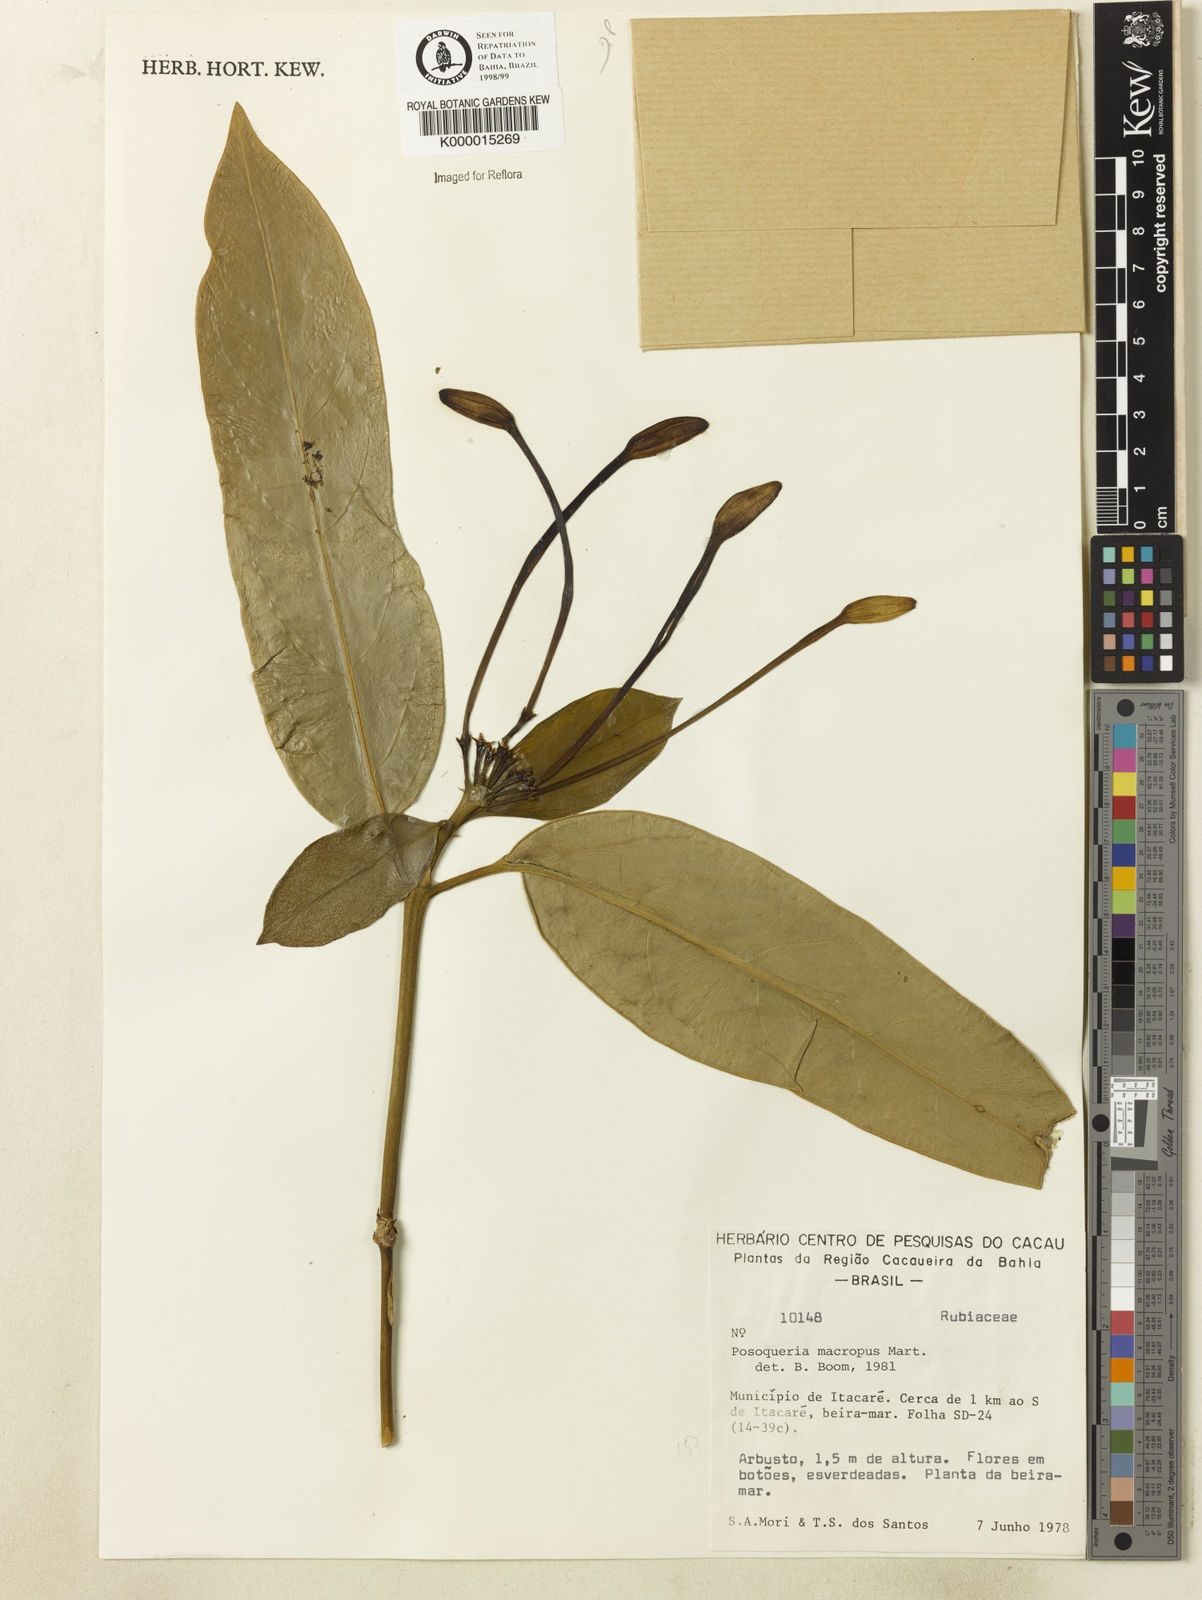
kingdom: Plantae
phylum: Tracheophyta
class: Magnoliopsida
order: Gentianales
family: Rubiaceae
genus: Posoqueria
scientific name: Posoqueria latifolia
